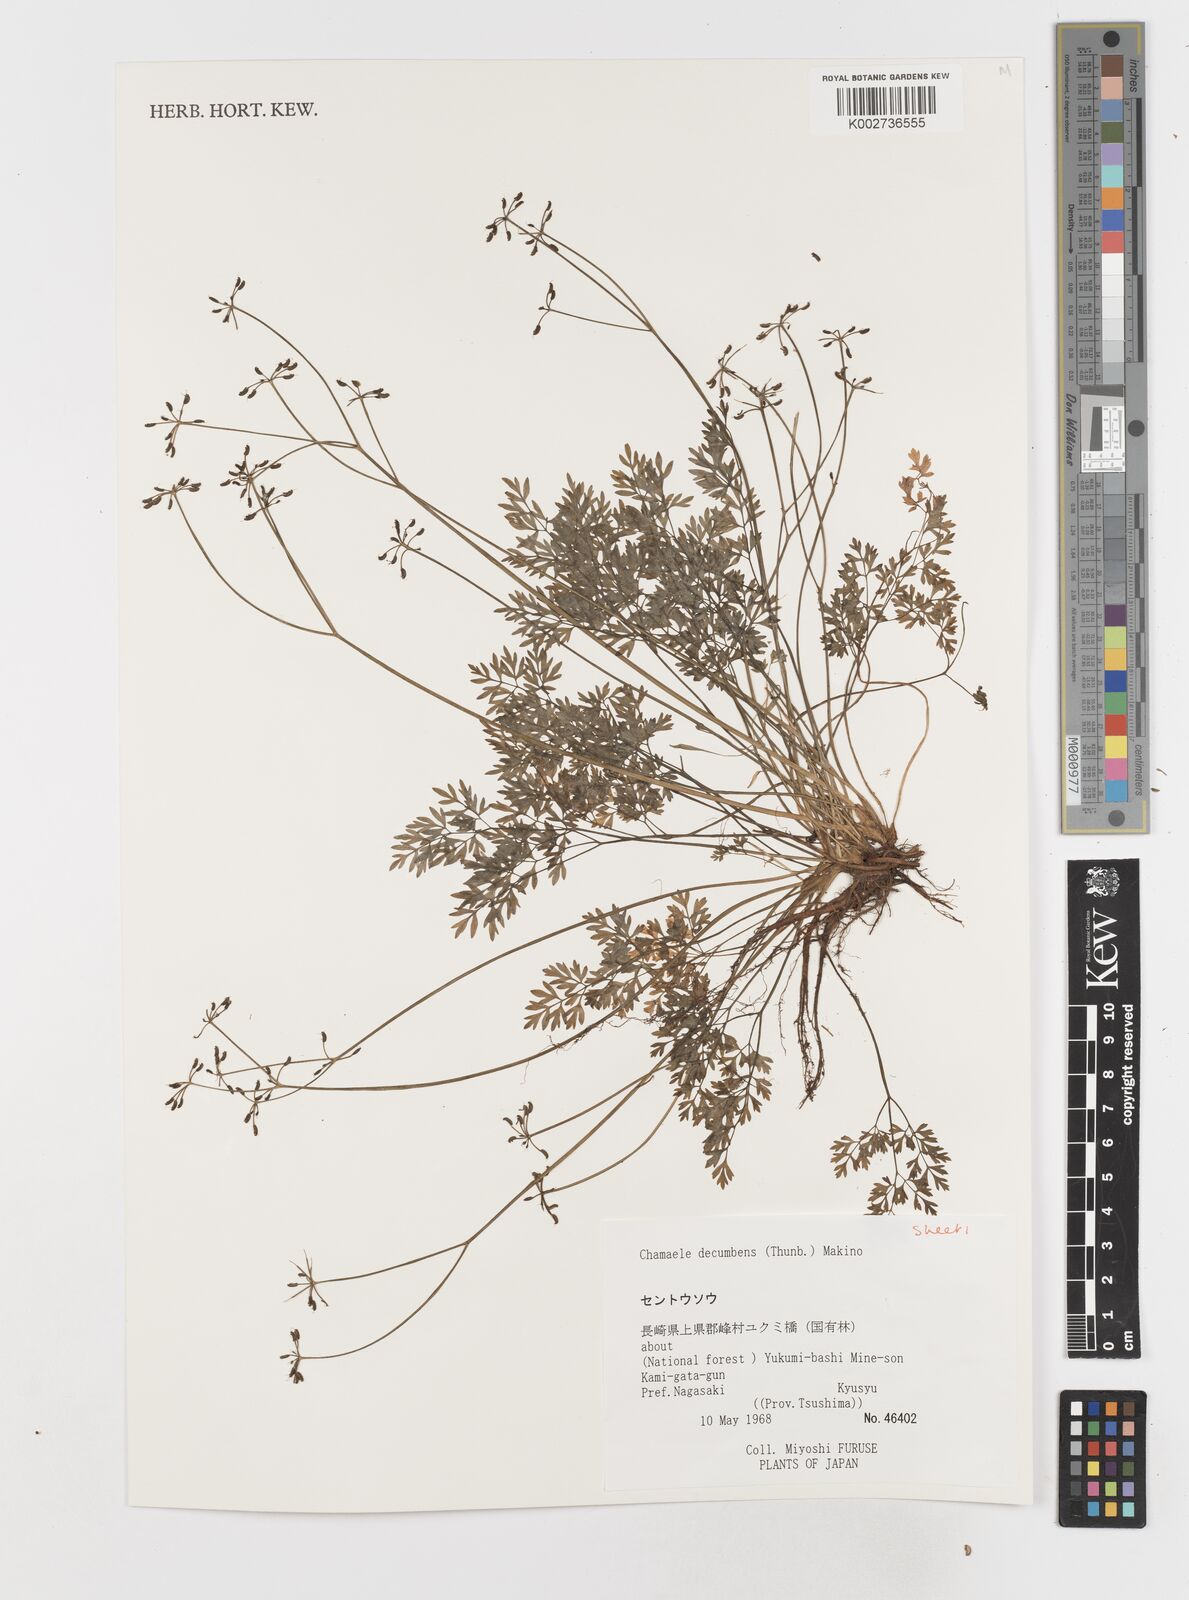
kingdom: Plantae
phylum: Tracheophyta
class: Magnoliopsida
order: Apiales
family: Apiaceae
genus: Aegopodium
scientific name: Aegopodium decumbens
